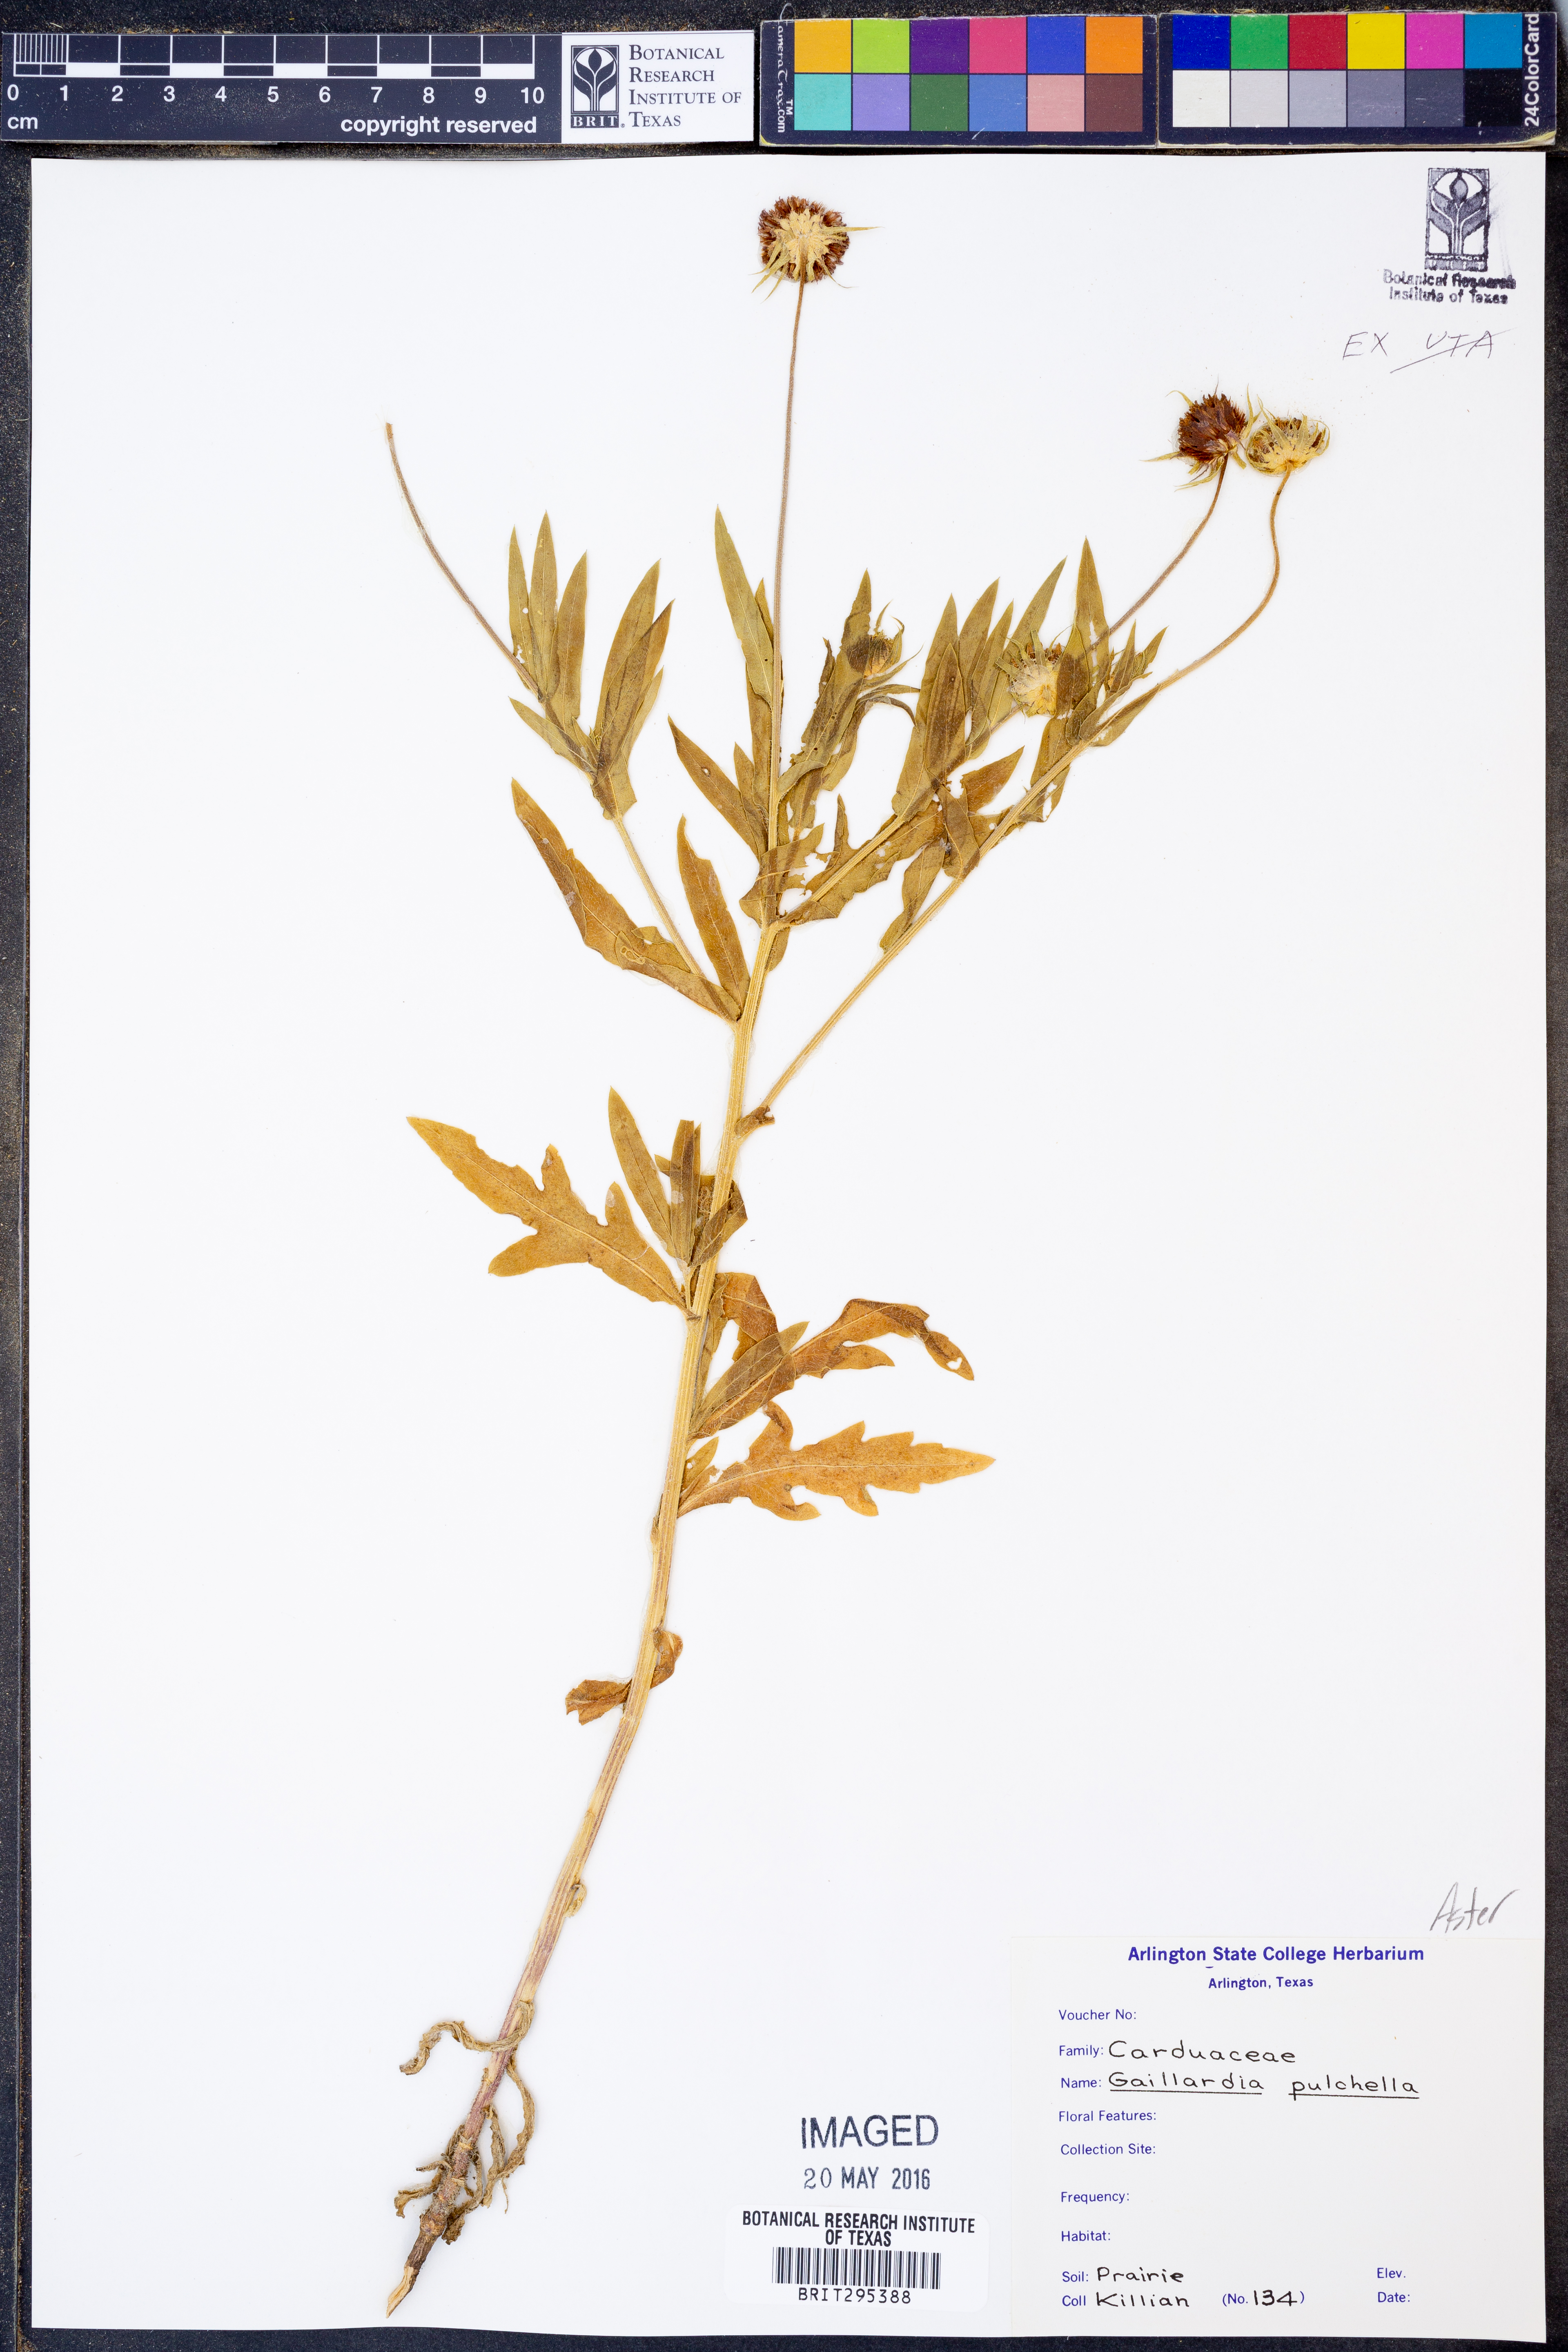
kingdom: Plantae
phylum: Tracheophyta
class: Magnoliopsida
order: Asterales
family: Asteraceae
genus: Gaillardia
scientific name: Gaillardia
